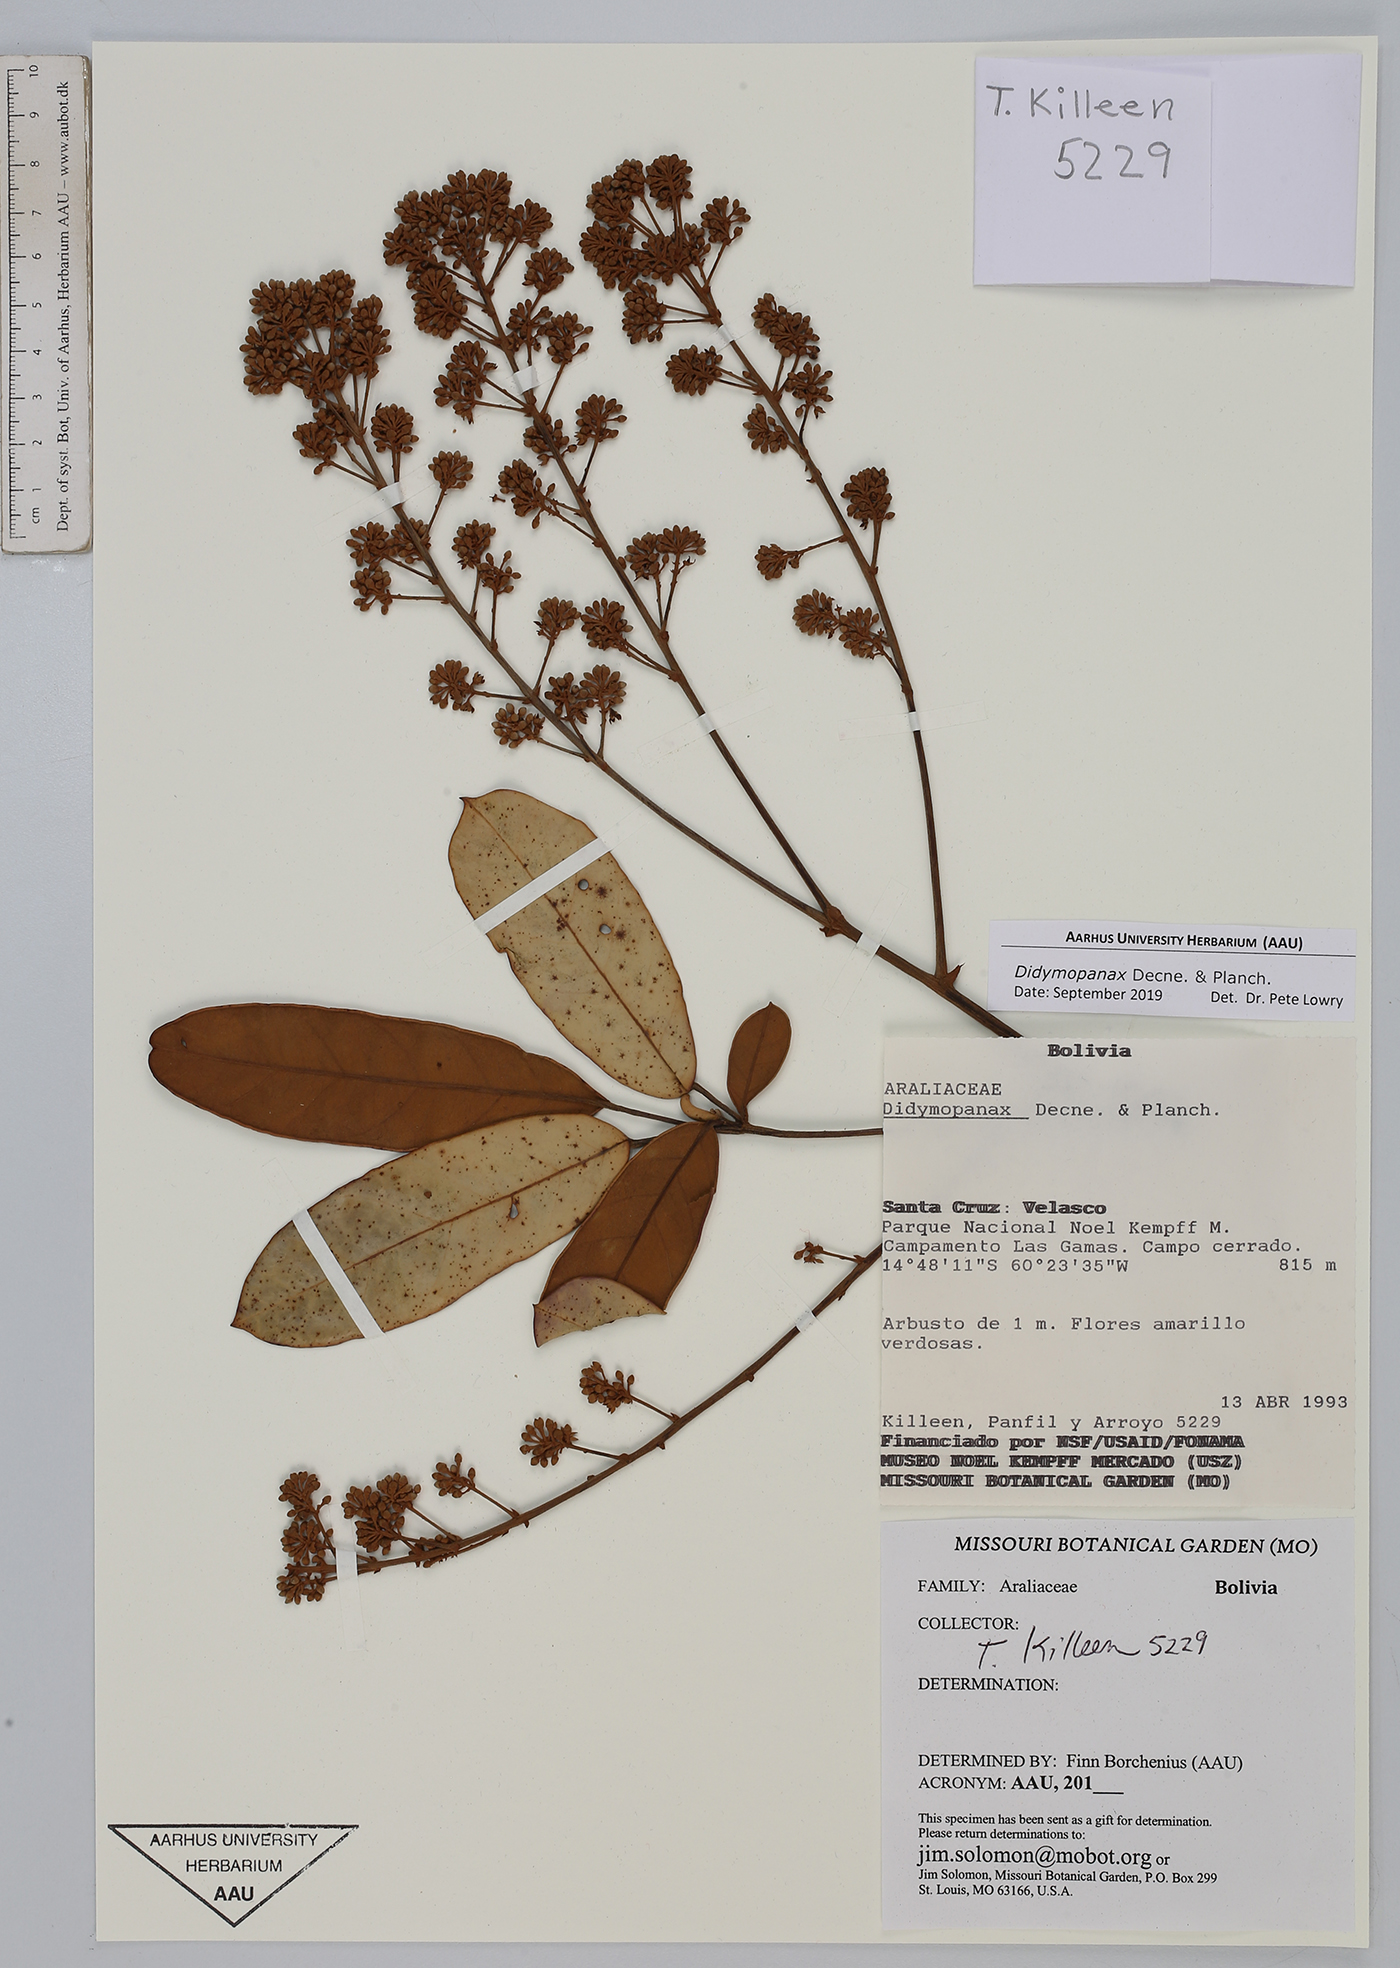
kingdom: Plantae
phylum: Tracheophyta
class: Magnoliopsida
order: Apiales
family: Araliaceae
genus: Didymopanax
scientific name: Didymopanax
